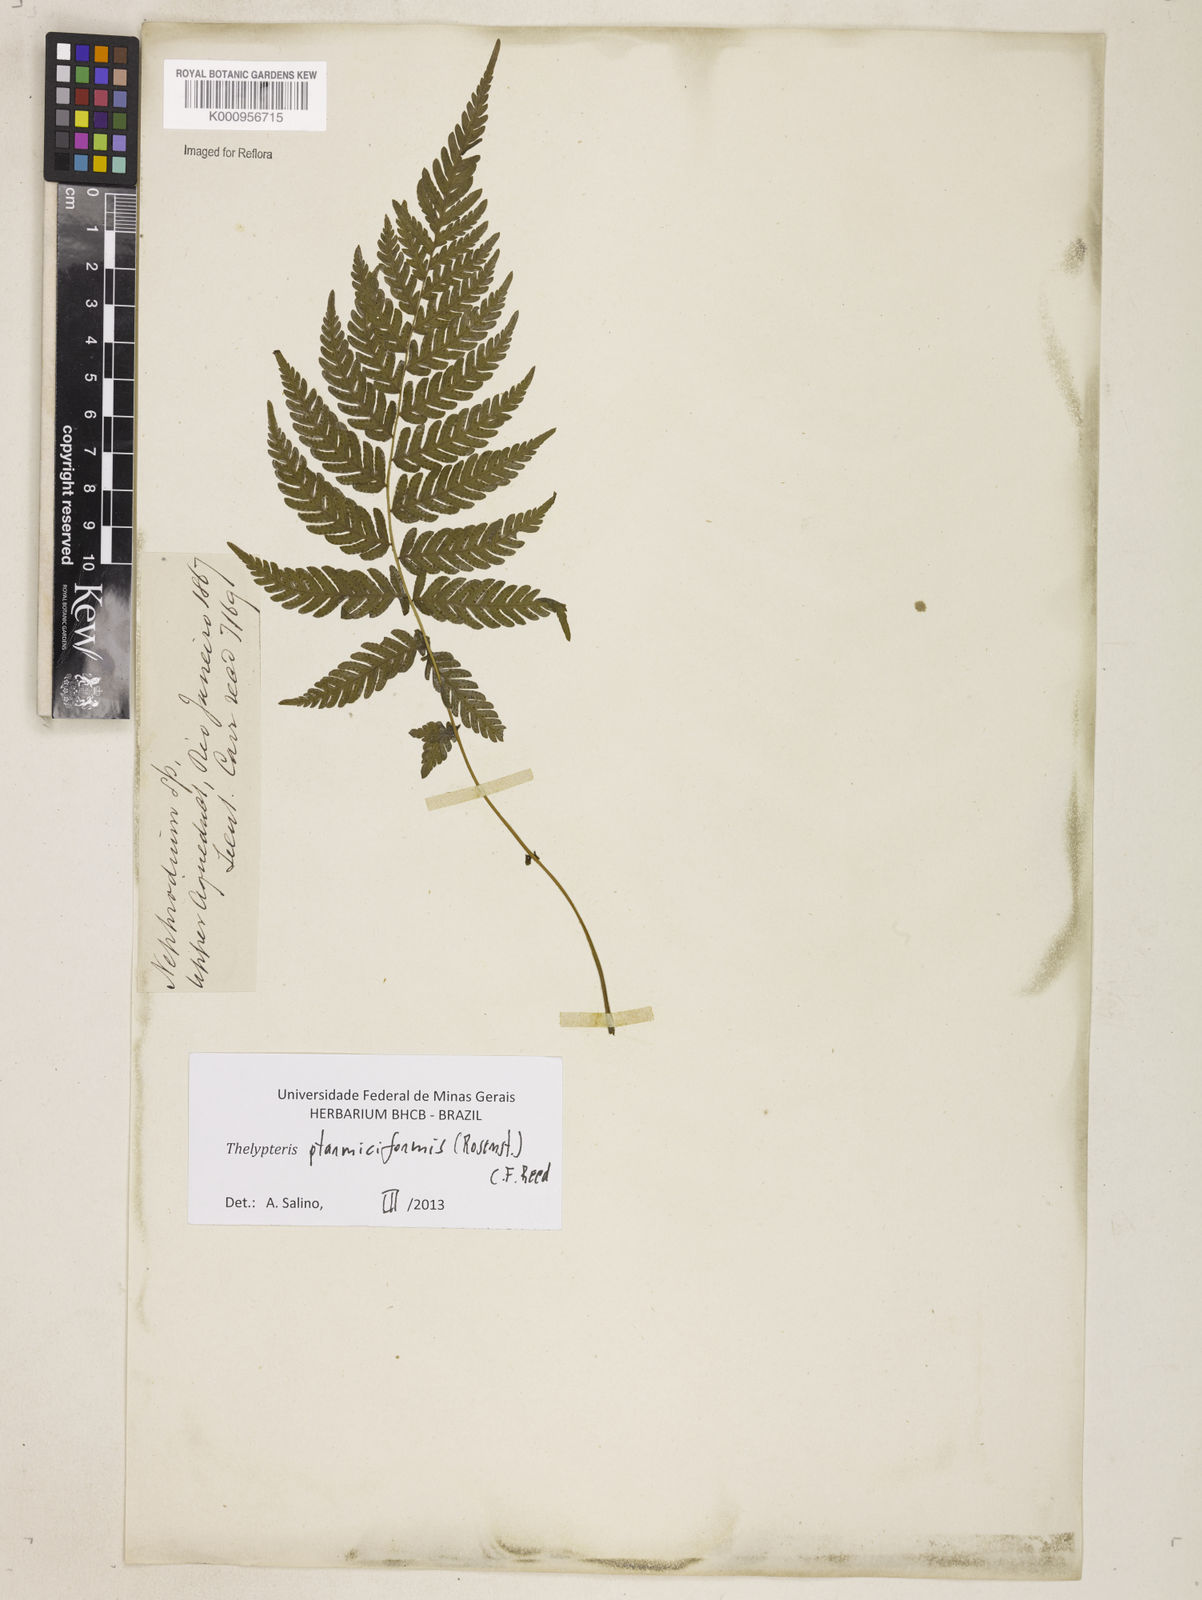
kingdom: Plantae
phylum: Tracheophyta
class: Polypodiopsida
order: Polypodiales
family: Thelypteridaceae
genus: Amauropelta
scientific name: Amauropelta ptarmiciformis
